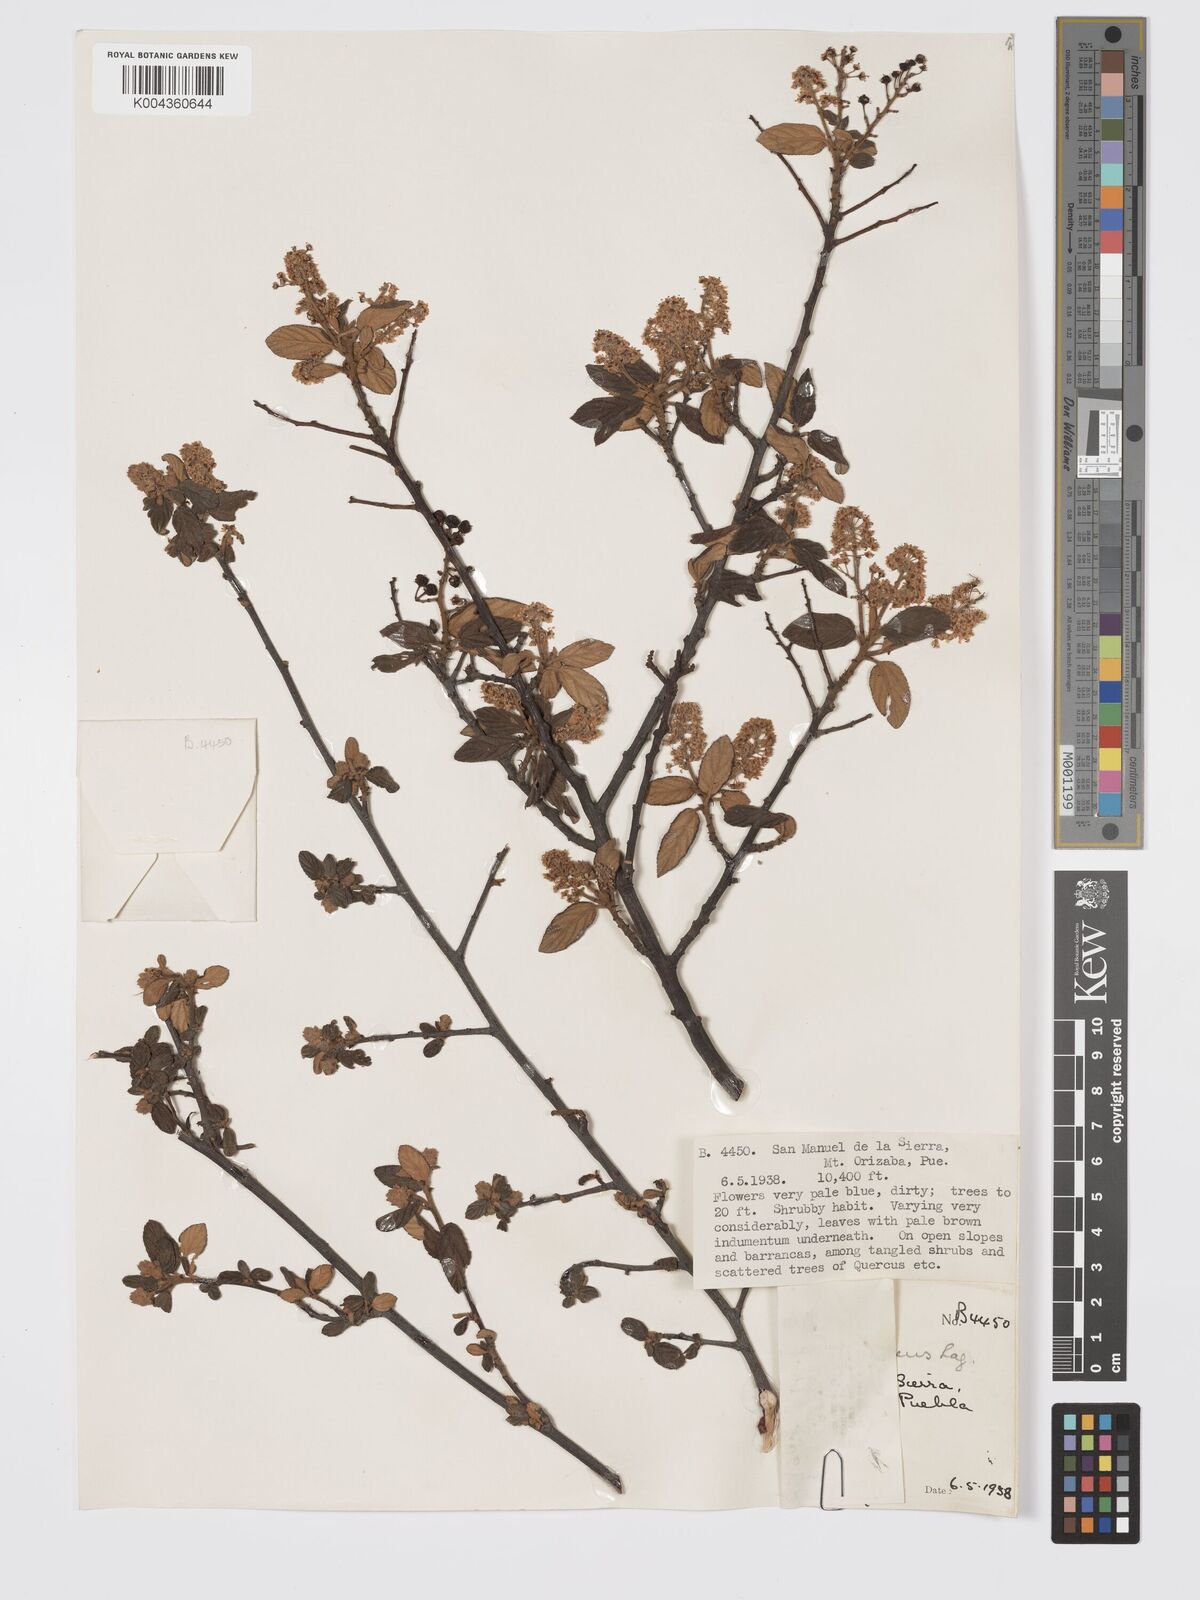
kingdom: Plantae
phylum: Tracheophyta
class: Magnoliopsida
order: Rosales
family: Rhamnaceae
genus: Ceanothus
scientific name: Ceanothus caeruleus
